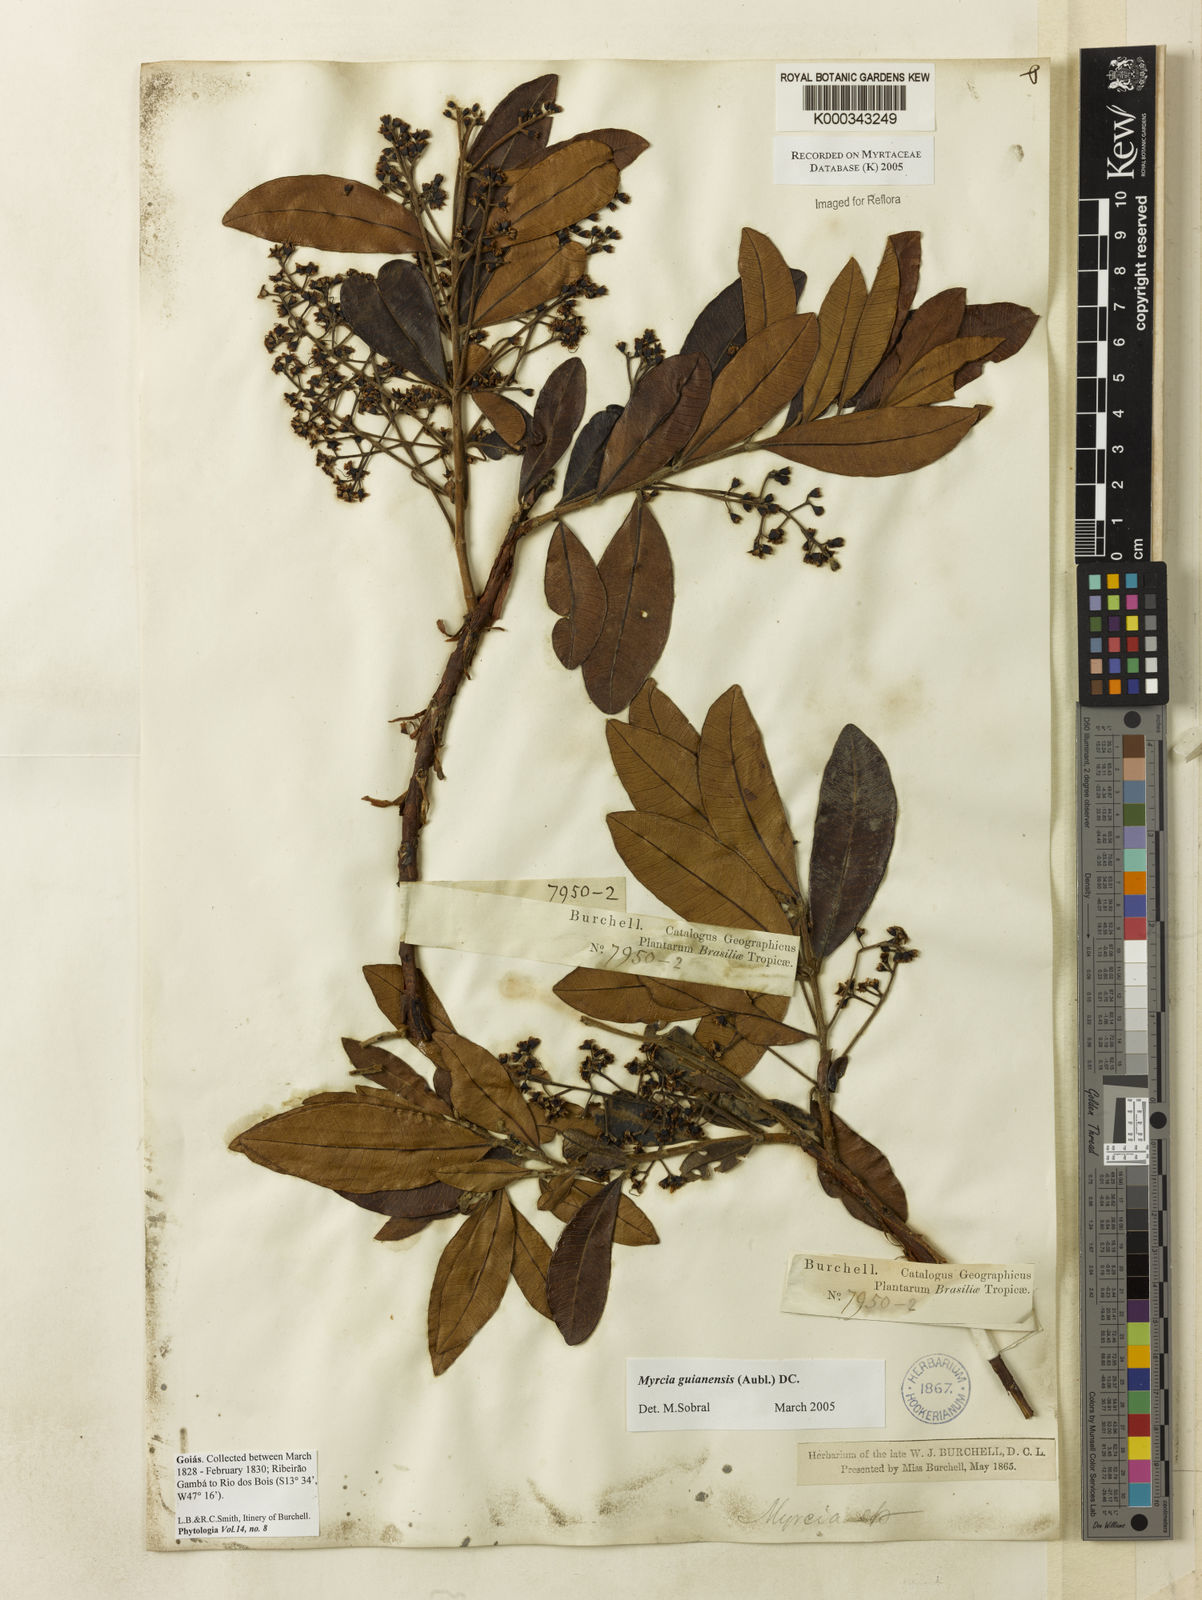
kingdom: Plantae
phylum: Tracheophyta
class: Magnoliopsida
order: Myrtales
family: Myrtaceae
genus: Myrcia
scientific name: Myrcia guianensis
